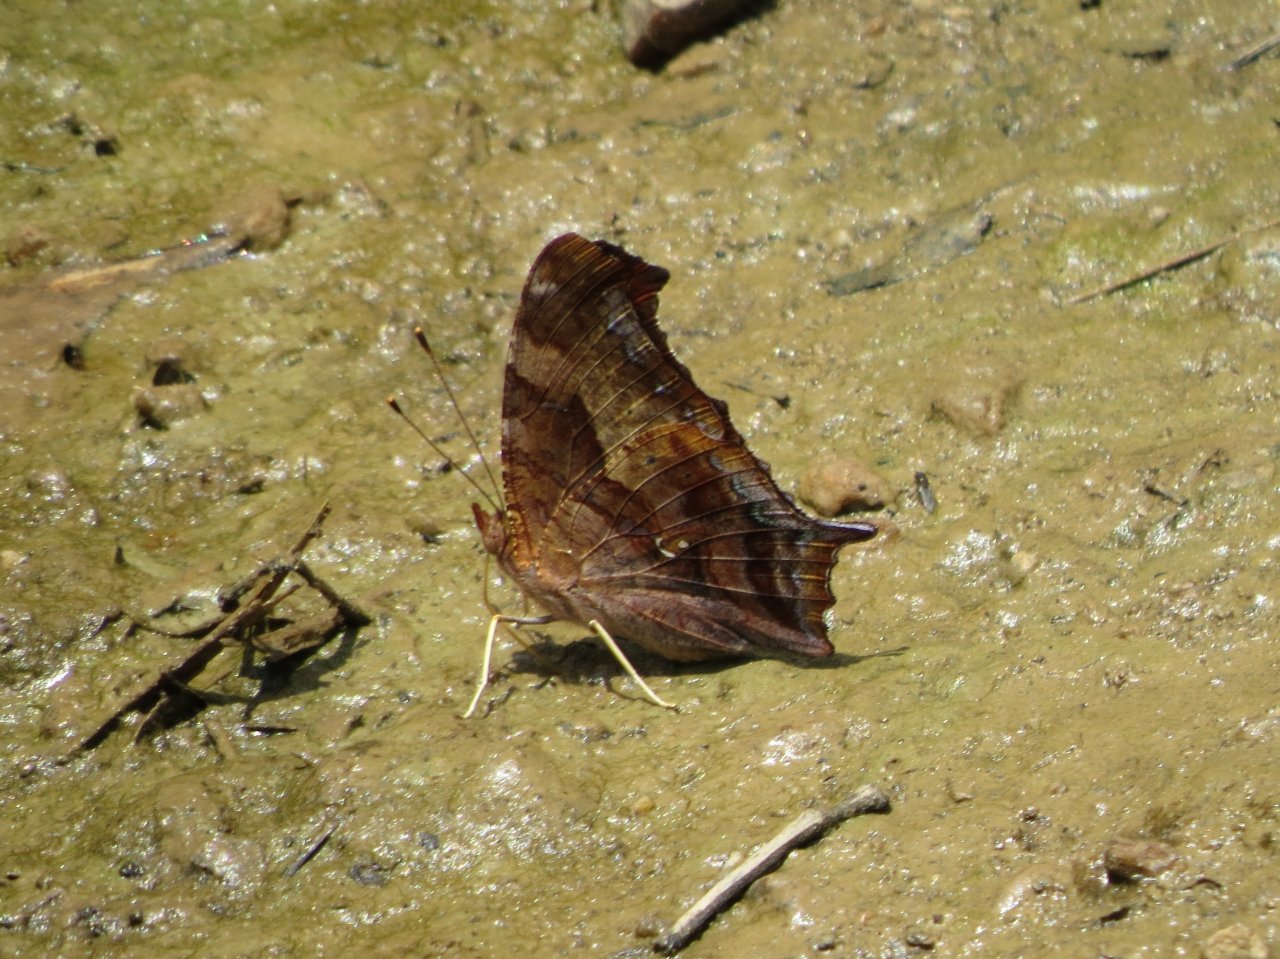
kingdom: Animalia
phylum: Arthropoda
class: Insecta
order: Lepidoptera
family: Nymphalidae
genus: Polygonia
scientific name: Polygonia interrogationis
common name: Question Mark
